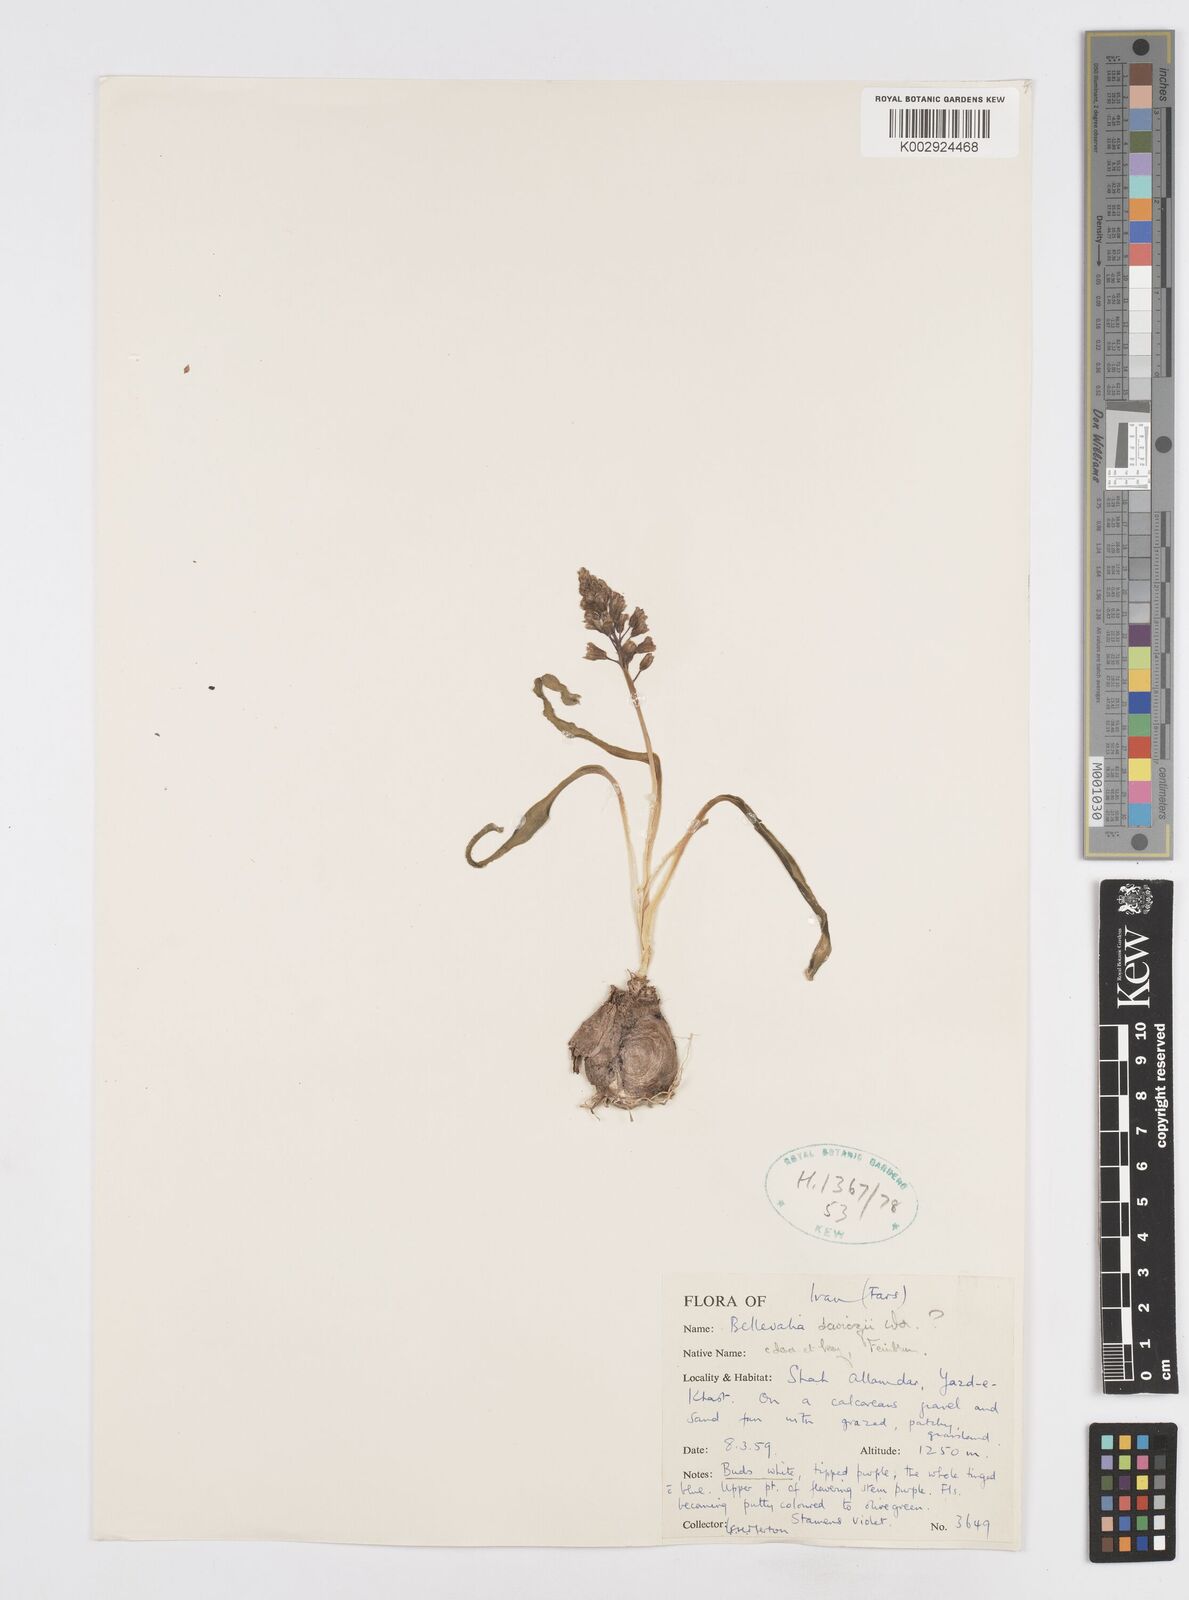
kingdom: Plantae
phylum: Tracheophyta
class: Liliopsida
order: Asparagales
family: Asparagaceae
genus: Bellevalia
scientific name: Bellevalia saviczii
